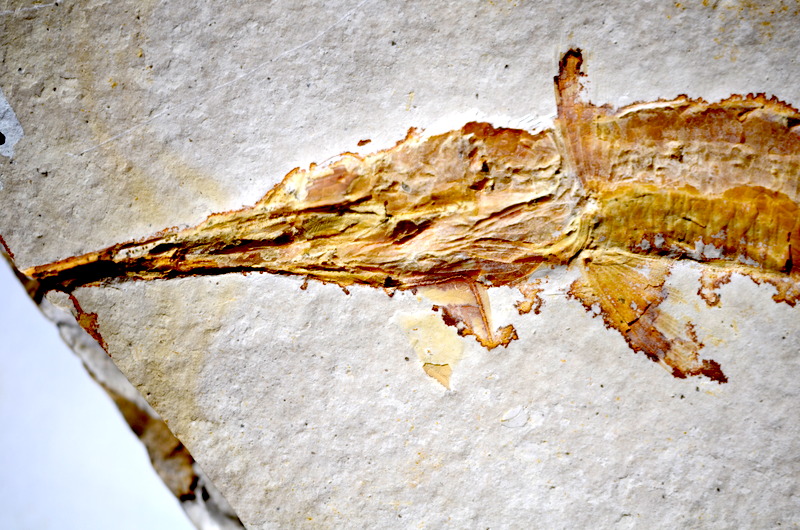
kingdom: Animalia
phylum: Chordata
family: Aspidorhynchidae
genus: Belonostomus
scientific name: Belonostomus
